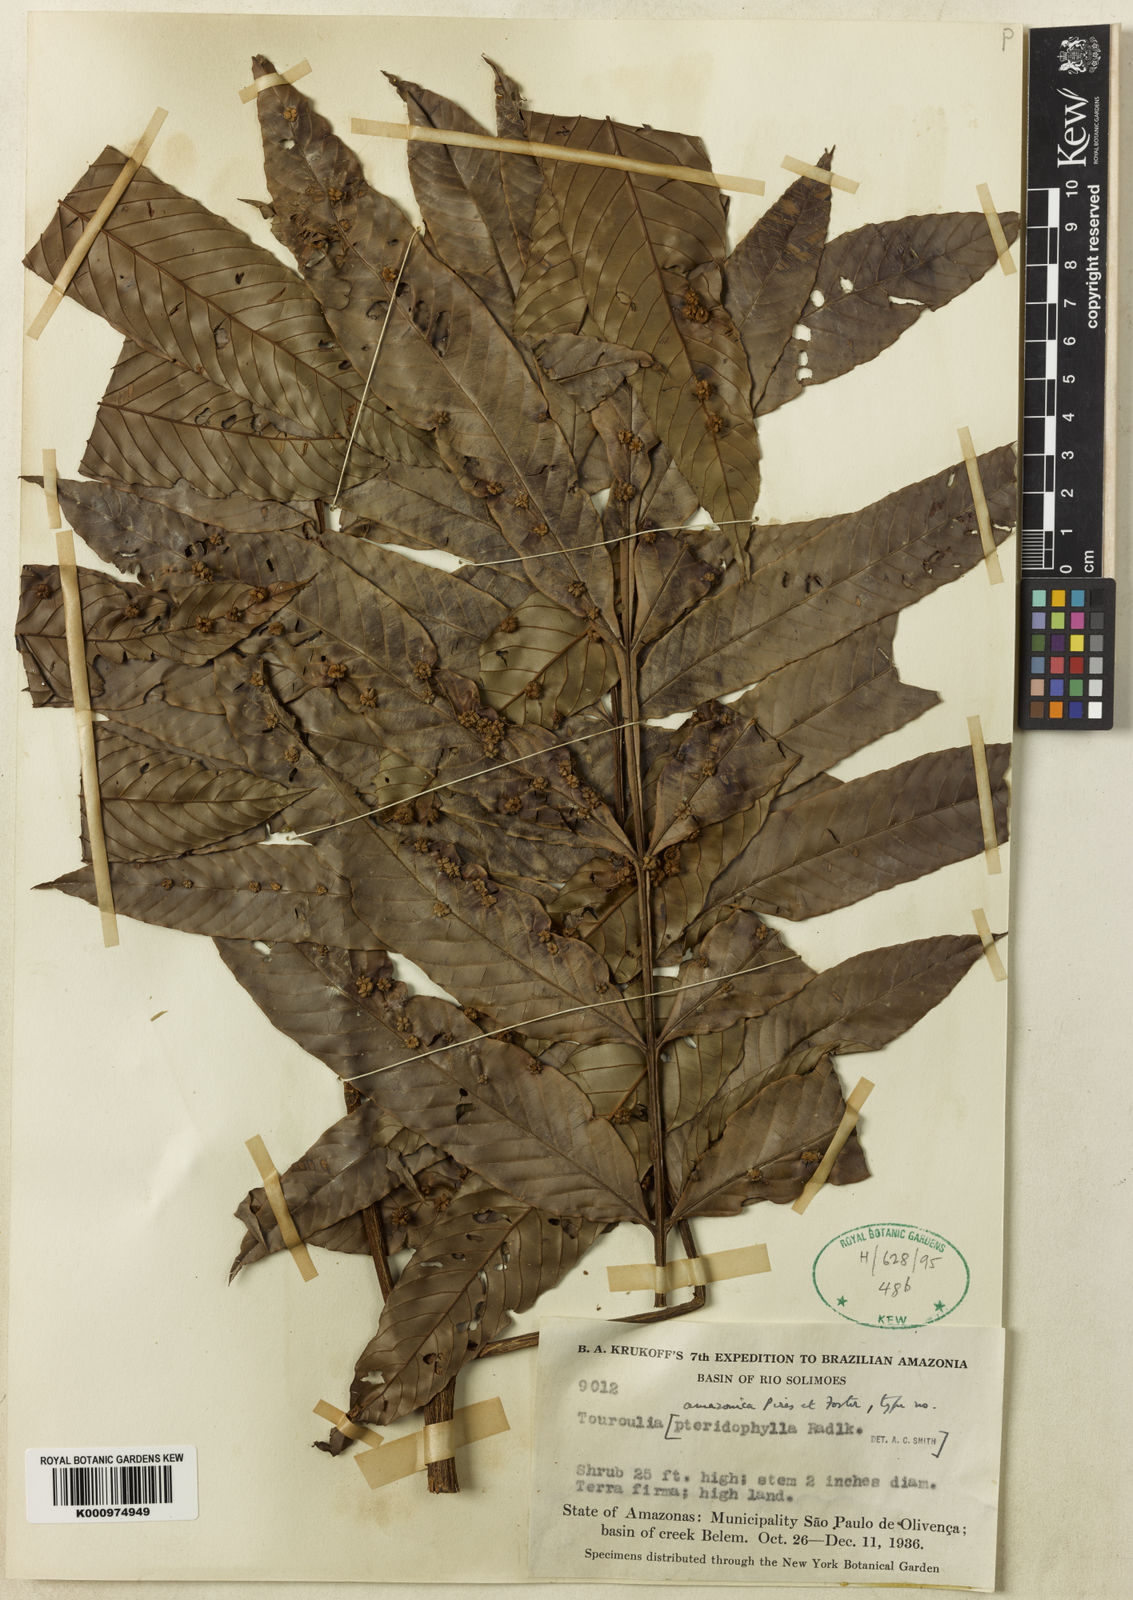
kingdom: Plantae
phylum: Tracheophyta
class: Magnoliopsida
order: Malpighiales
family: Quiinaceae
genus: Touroulia
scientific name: Touroulia amazonica
